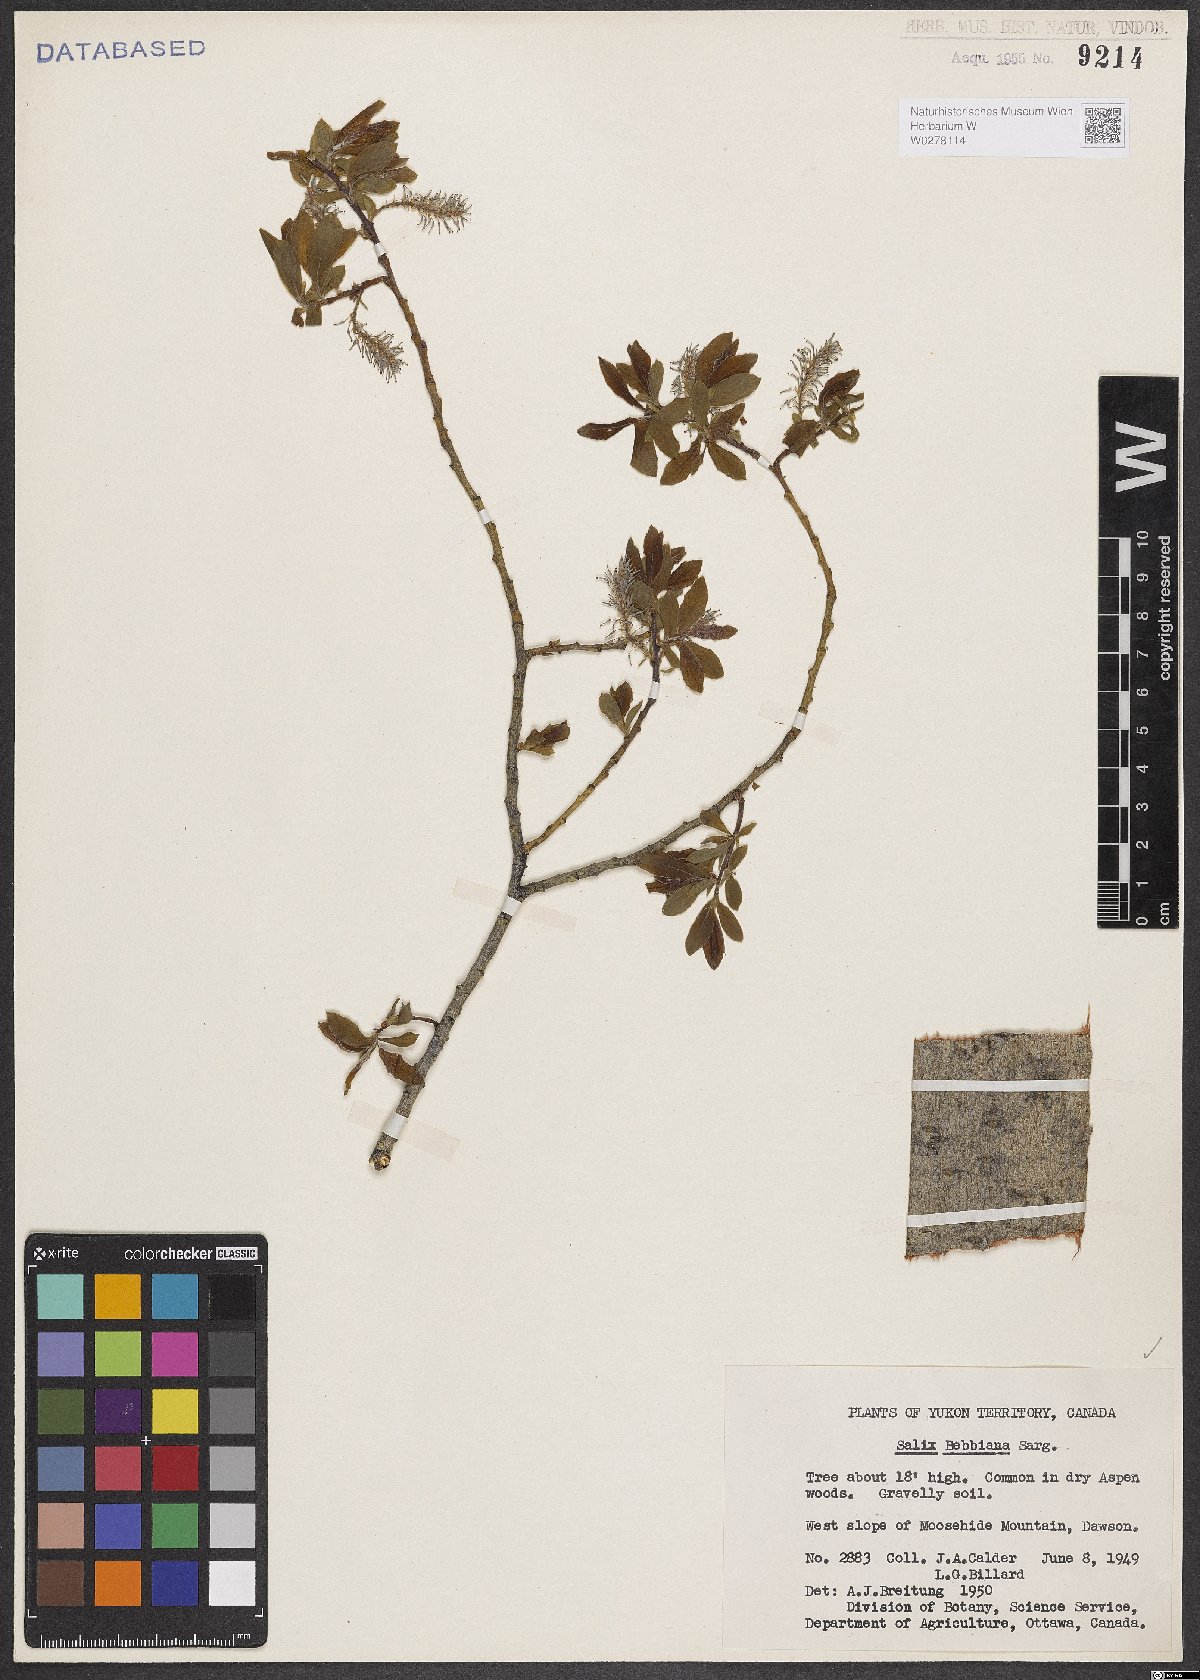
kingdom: Plantae
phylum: Tracheophyta
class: Magnoliopsida
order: Malpighiales
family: Salicaceae
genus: Salix
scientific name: Salix bebbiana
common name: Bebb's willow
